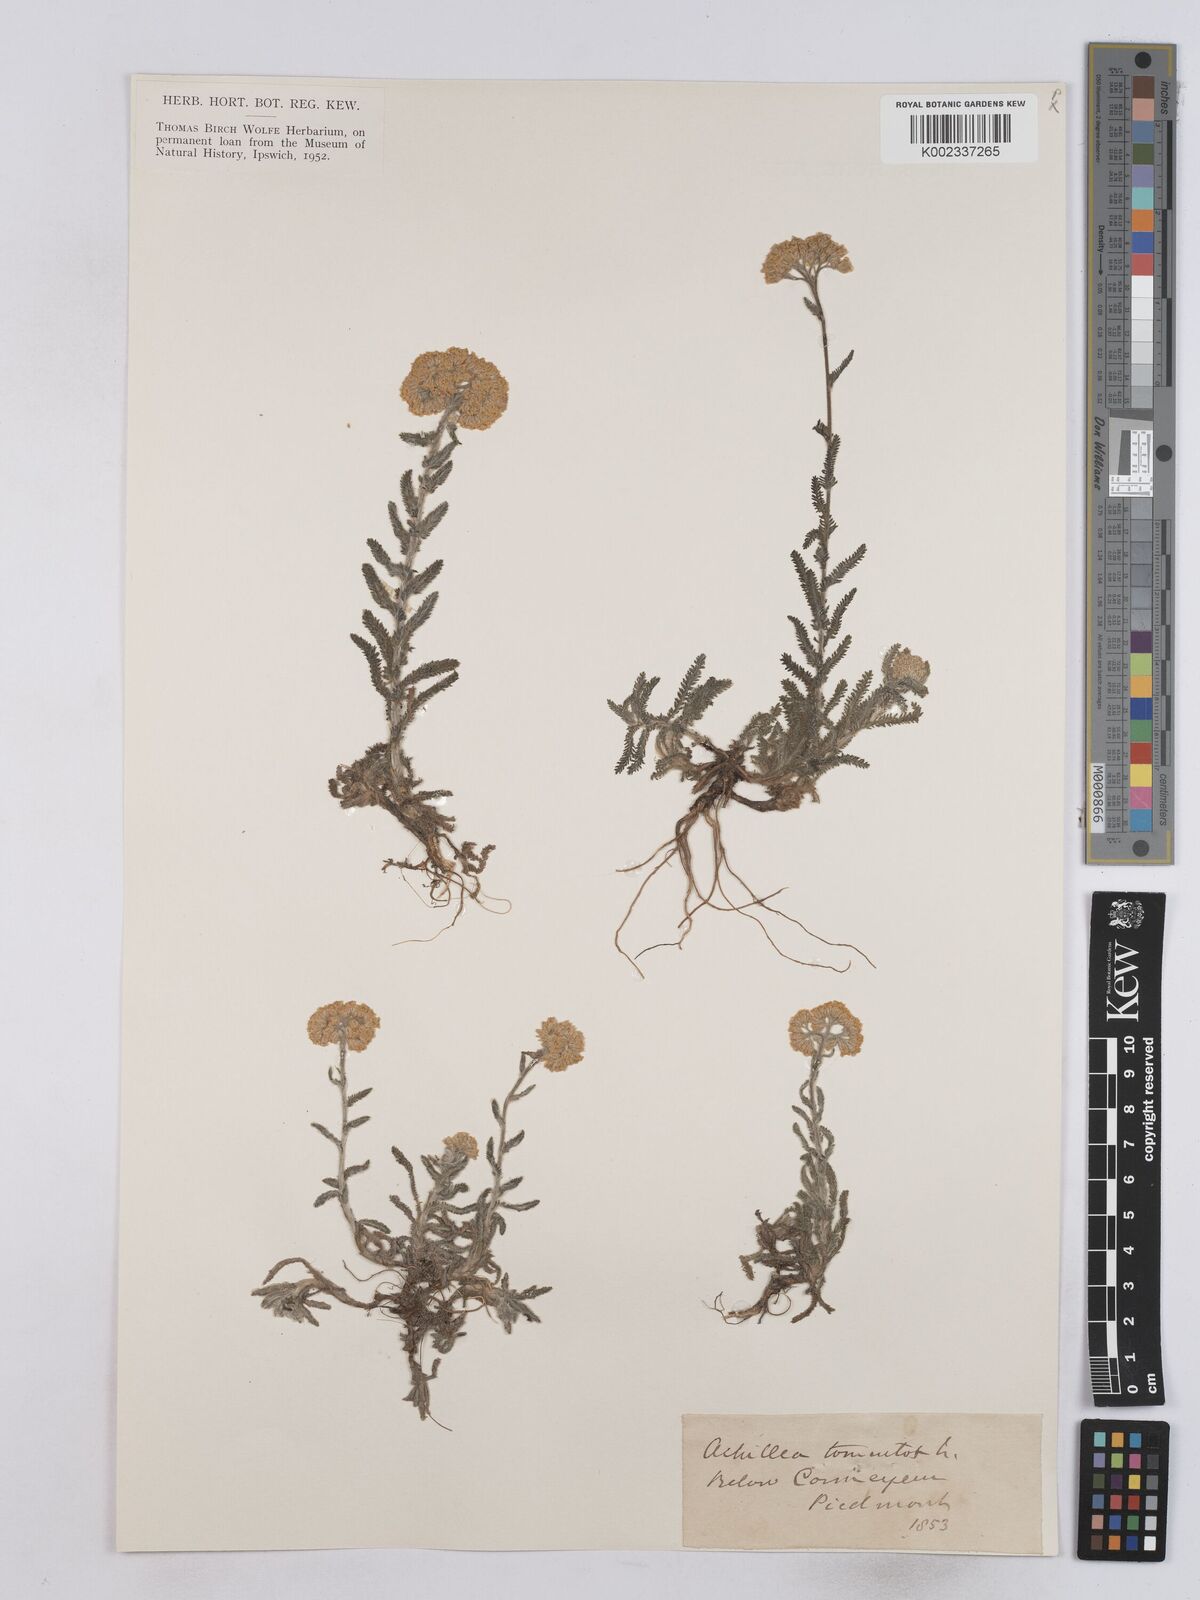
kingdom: Plantae
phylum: Tracheophyta
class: Magnoliopsida
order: Asterales
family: Asteraceae
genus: Achillea
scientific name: Achillea tomentosa
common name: Yellow milfoil
